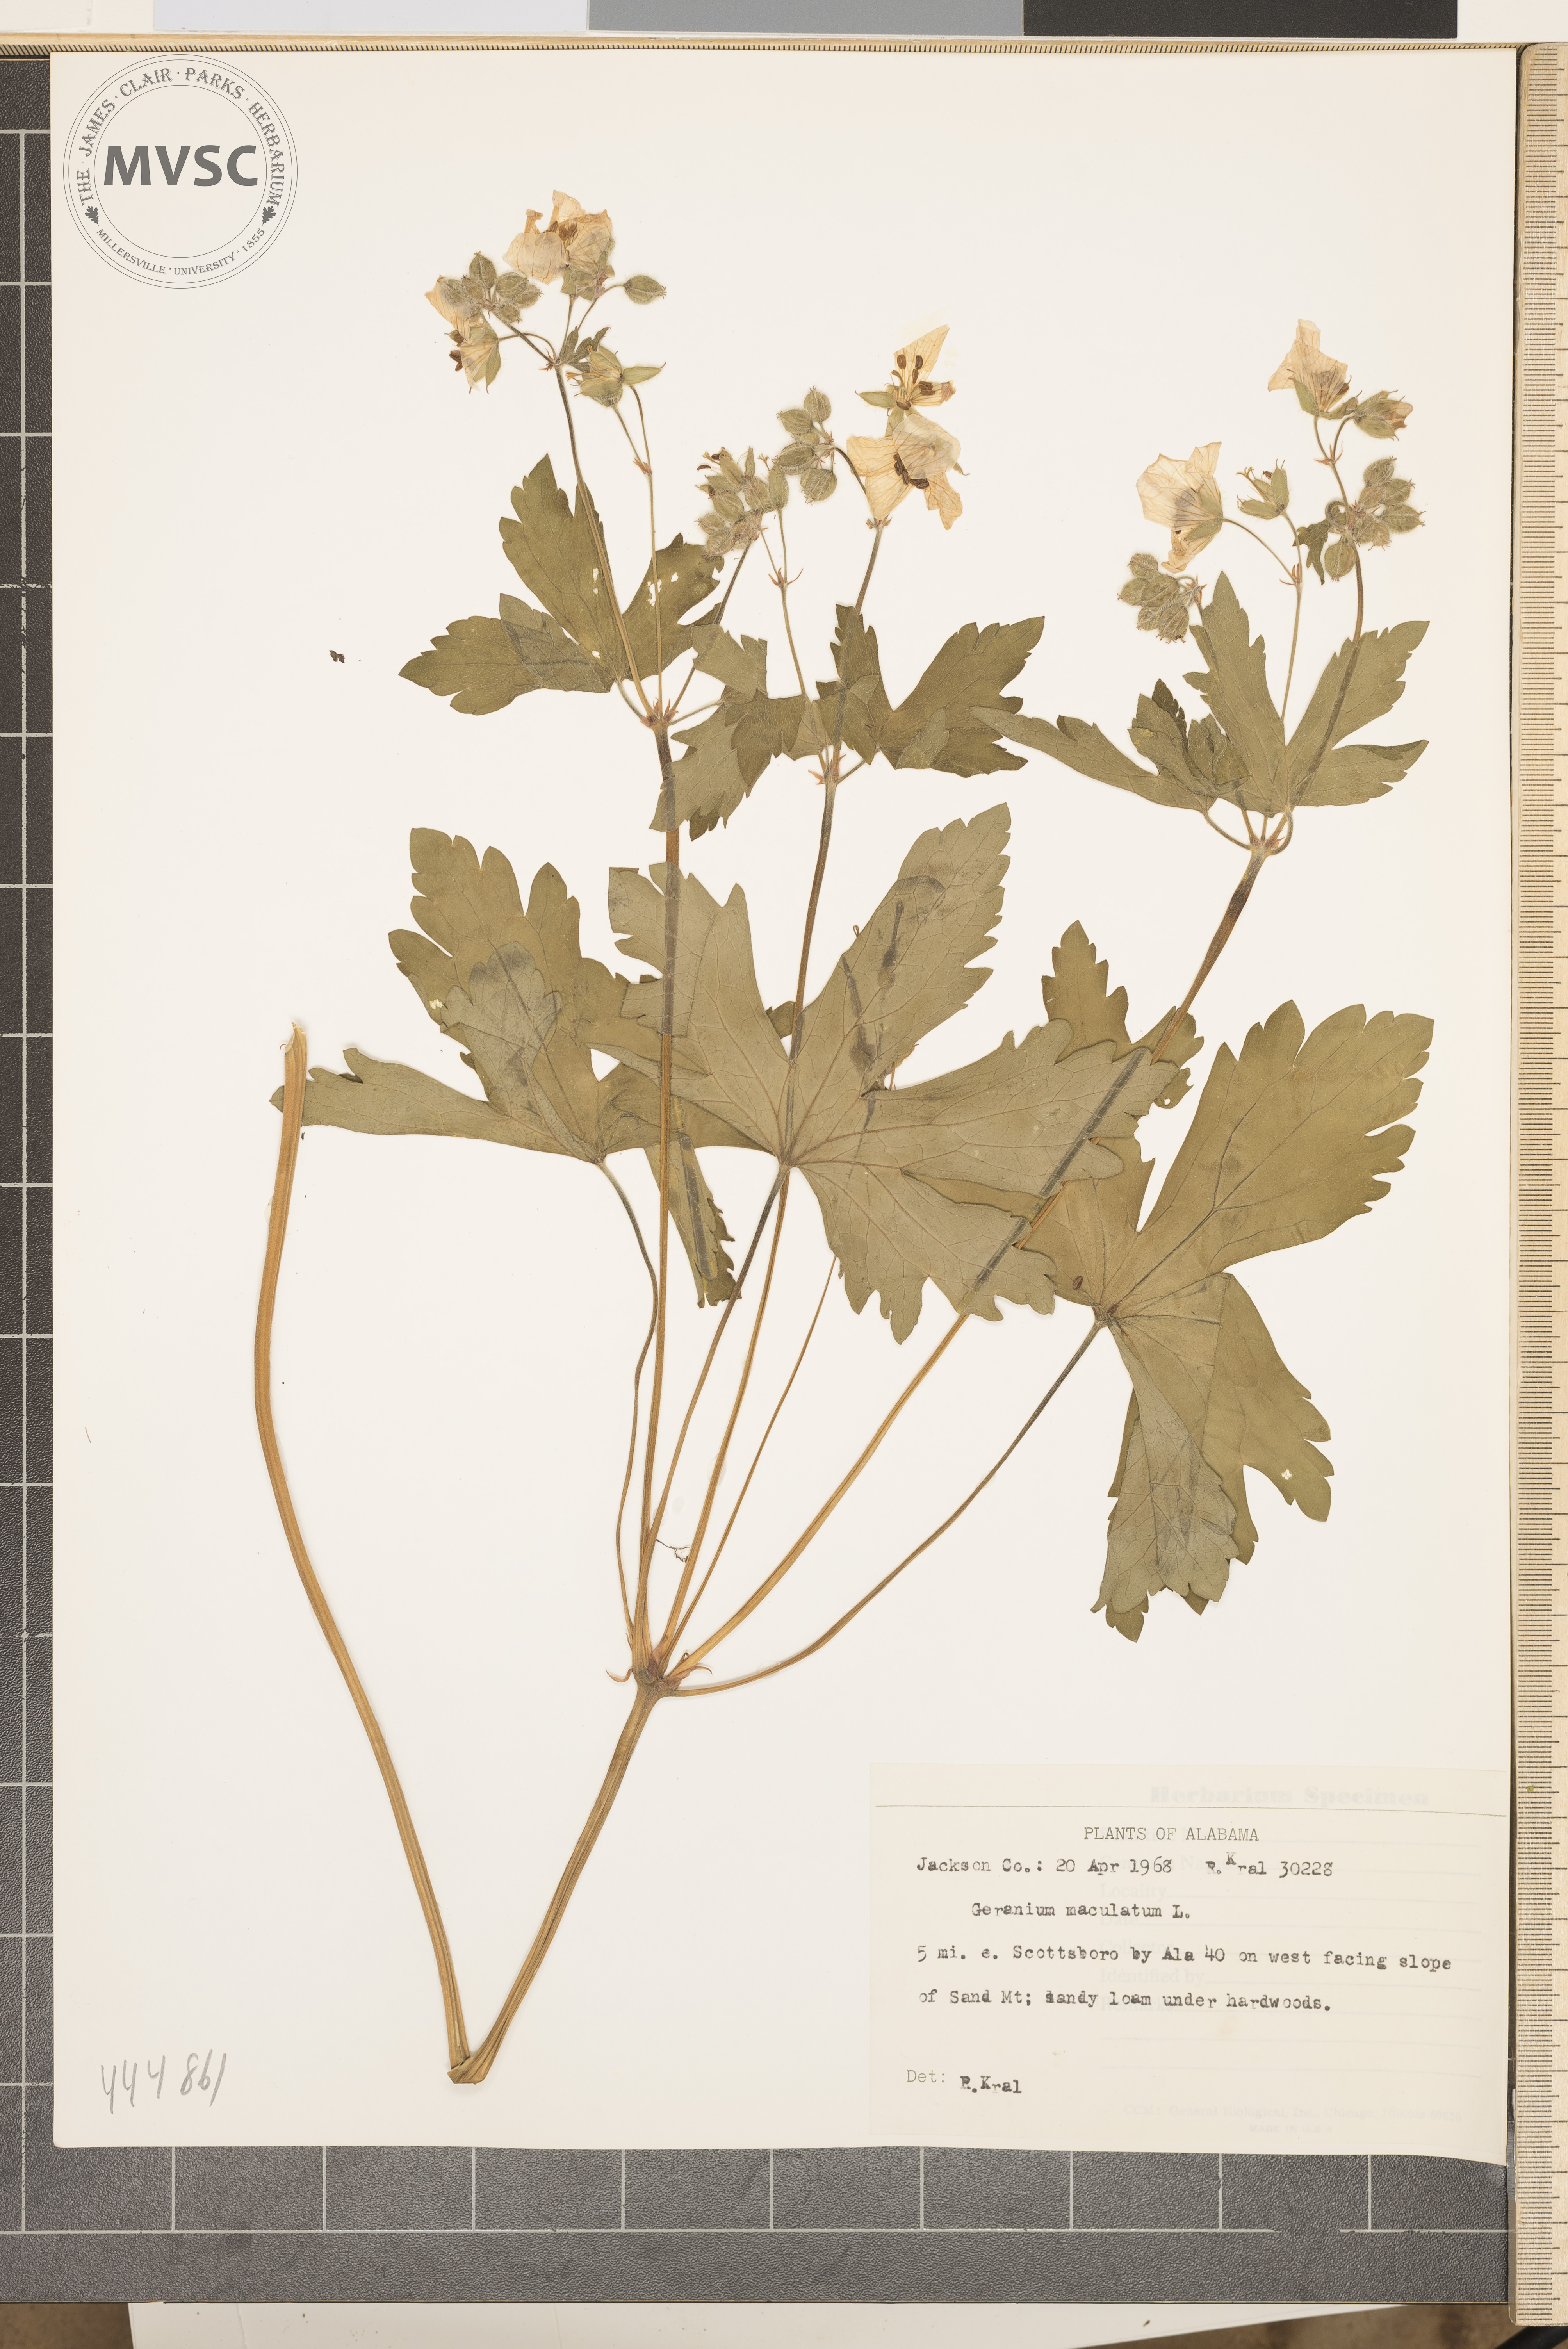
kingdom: Plantae
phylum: Tracheophyta
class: Magnoliopsida
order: Geraniales
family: Geraniaceae
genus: Geranium
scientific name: Geranium maculatum
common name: Spotted geranium
